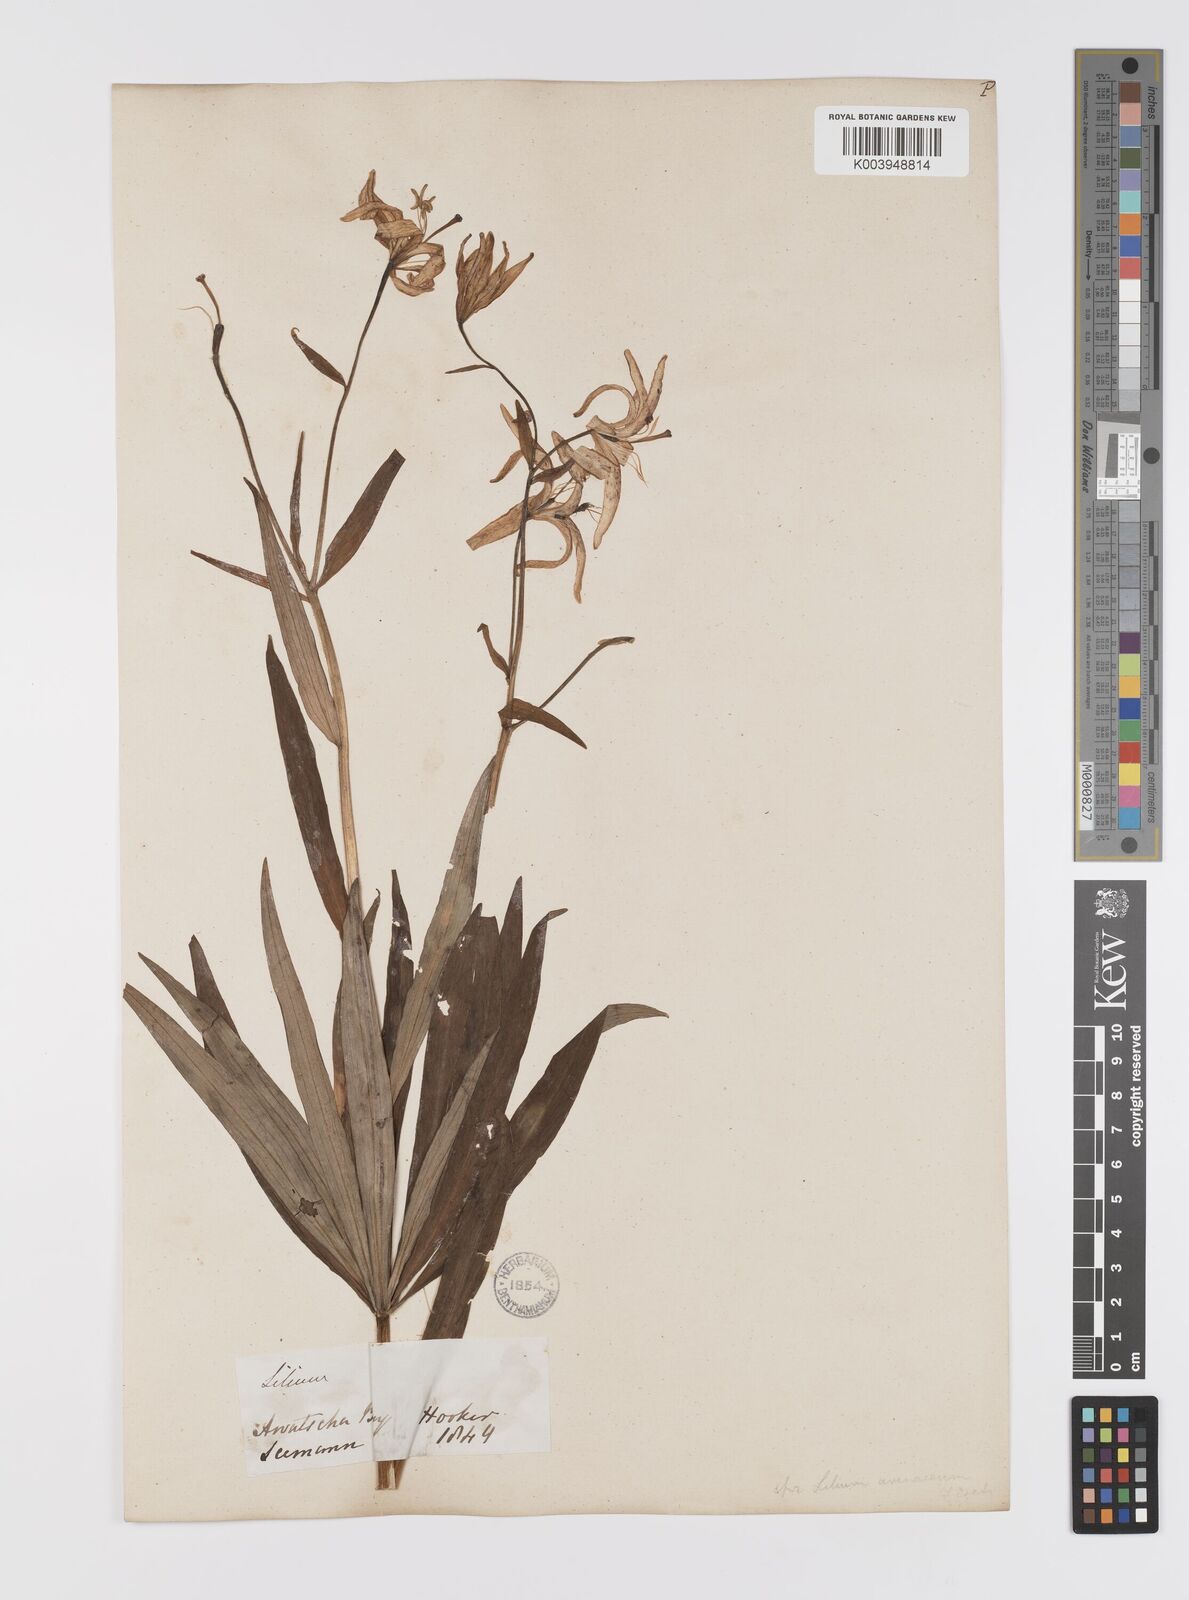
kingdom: Plantae
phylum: Tracheophyta
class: Liliopsida
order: Liliales
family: Liliaceae
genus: Lilium
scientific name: Lilium medeoloides
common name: Wheel lily
